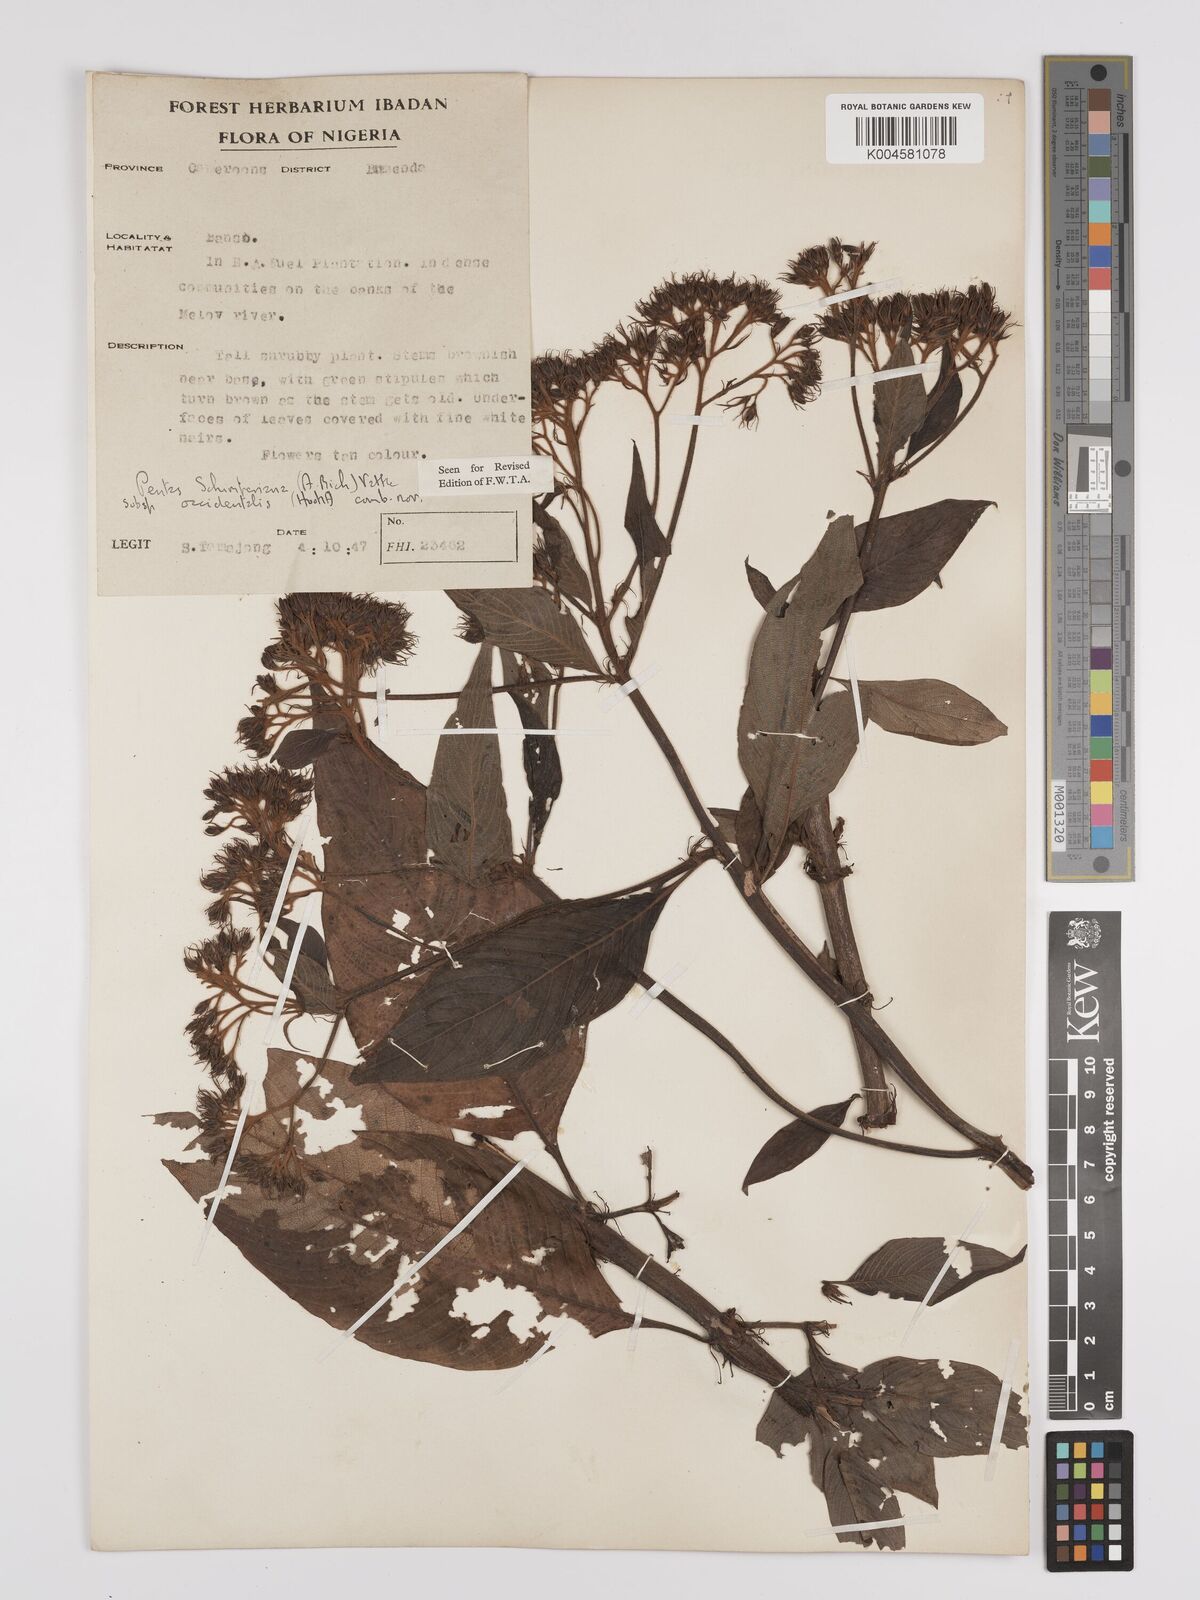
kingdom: Plantae
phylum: Tracheophyta
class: Magnoliopsida
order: Gentianales
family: Rubiaceae
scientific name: Rubiaceae
